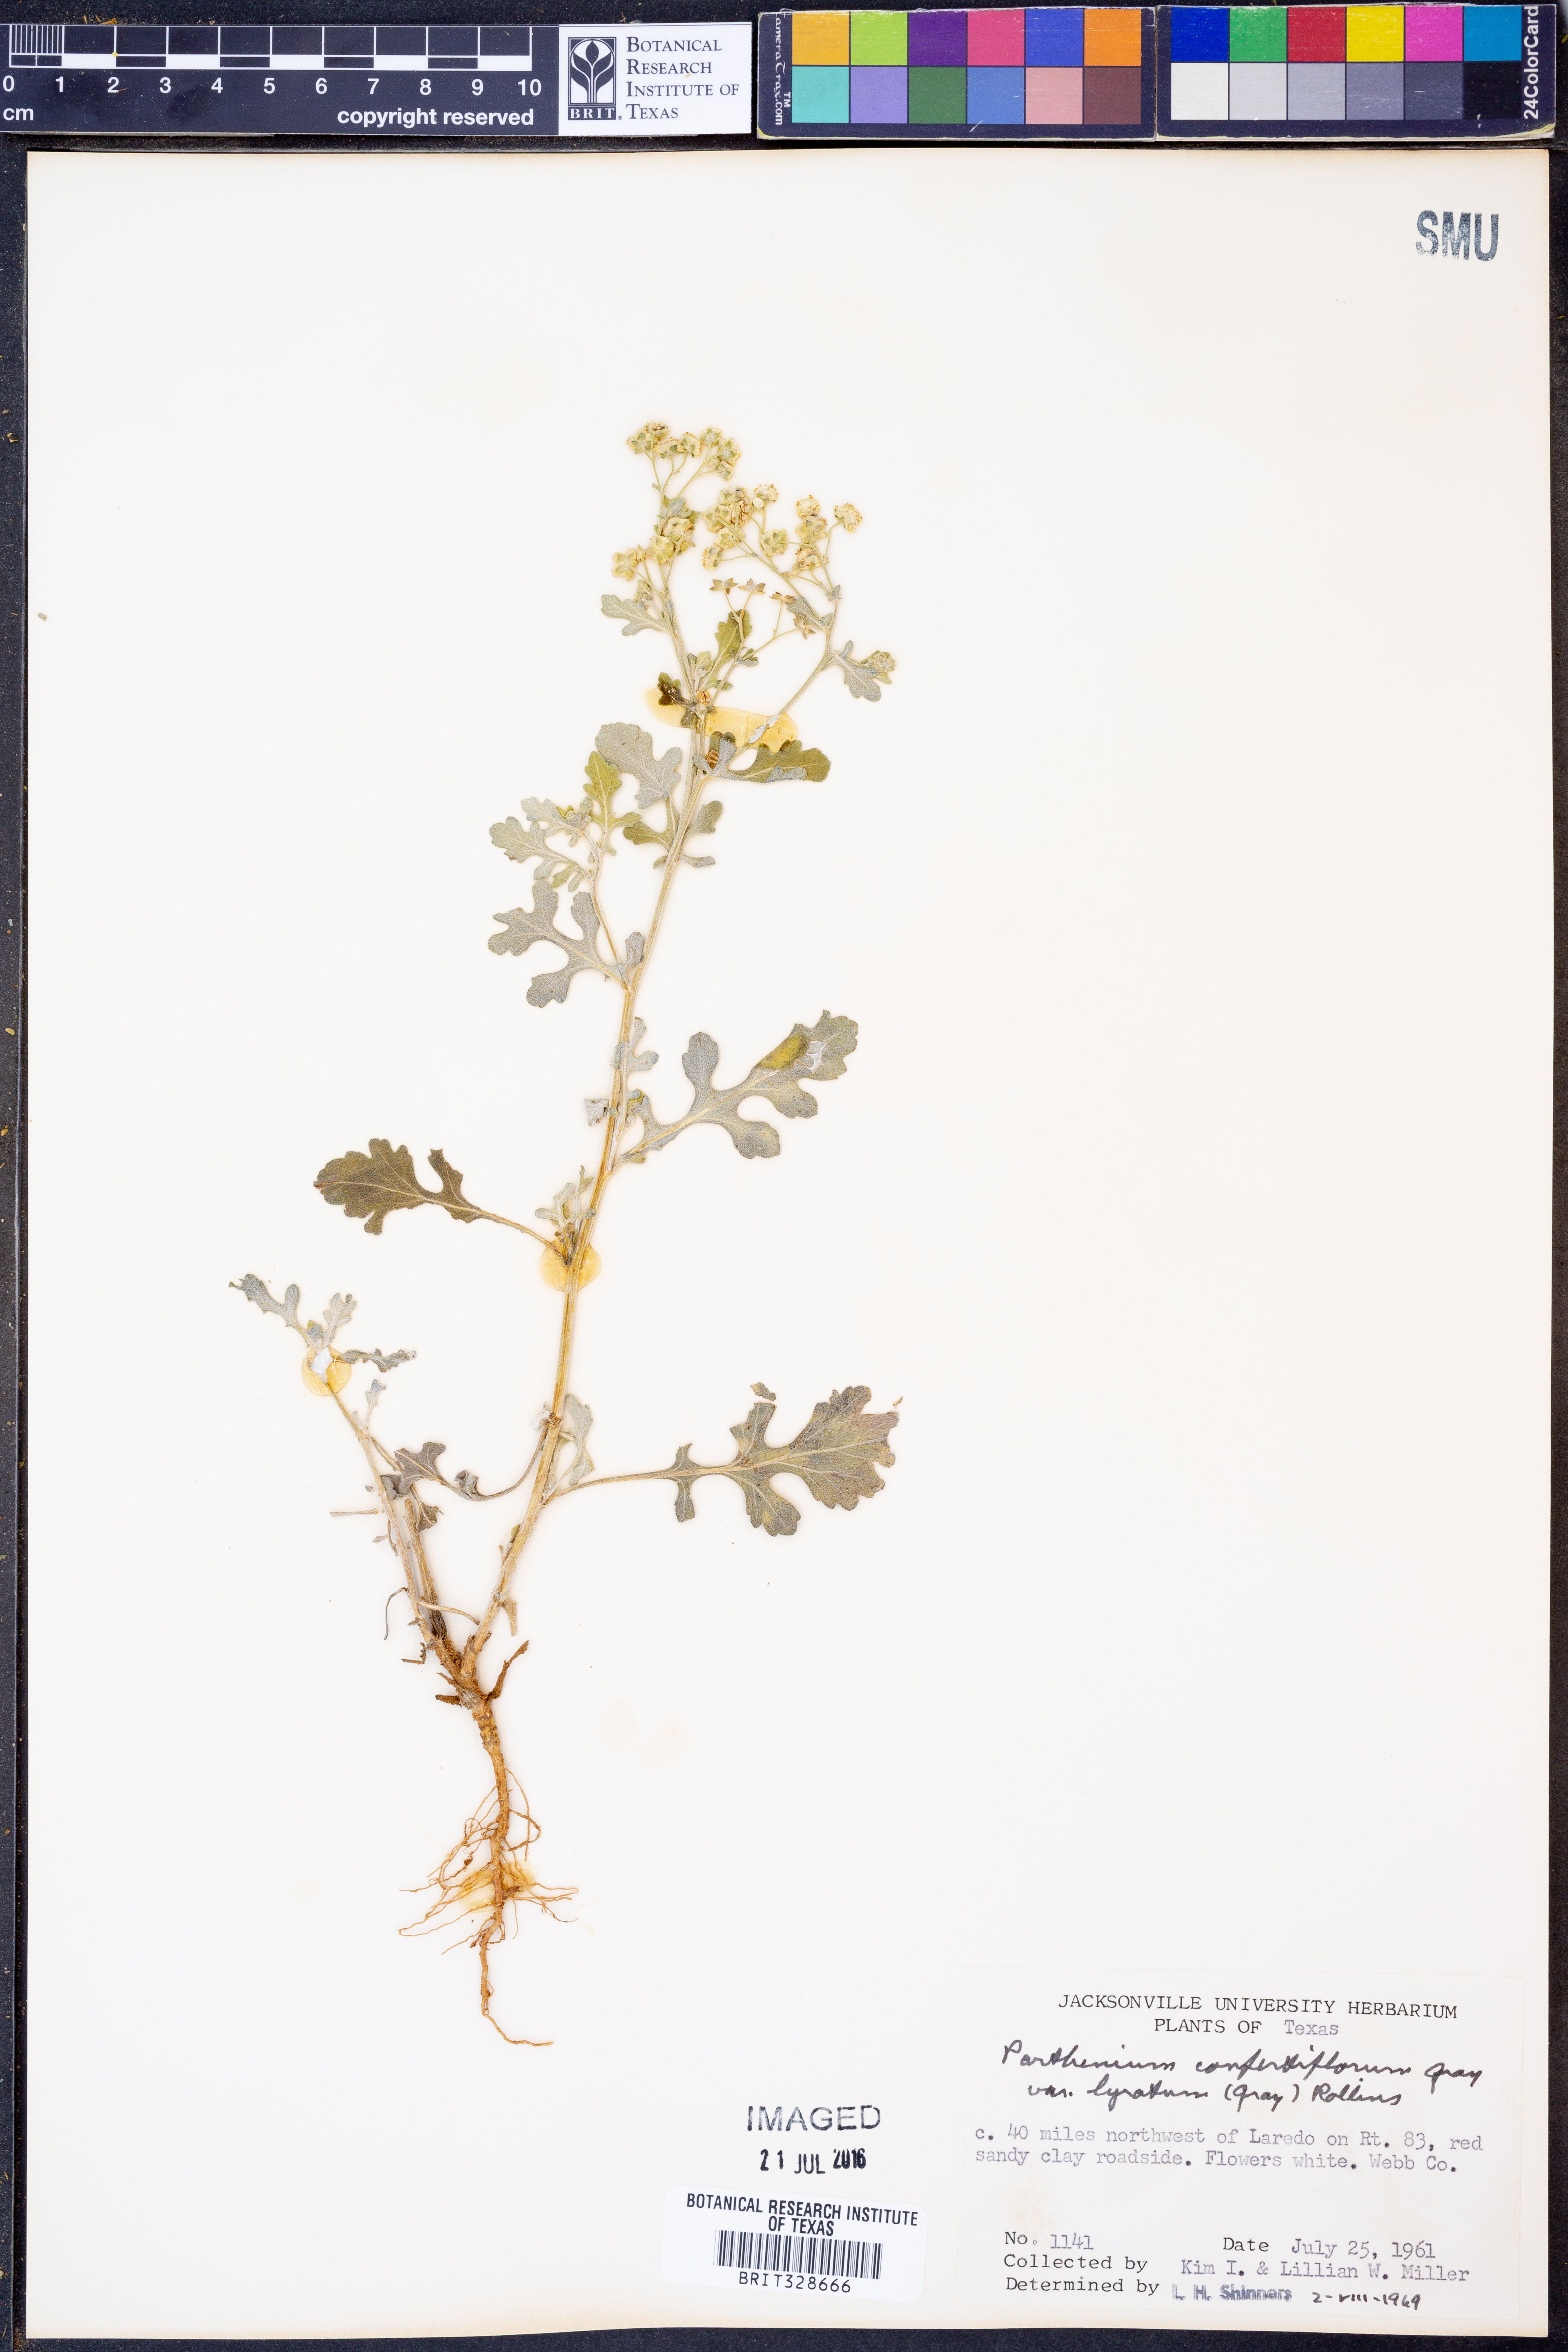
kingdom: Plantae
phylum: Tracheophyta
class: Magnoliopsida
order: Asterales
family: Asteraceae
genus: Parthenium
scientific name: Parthenium
